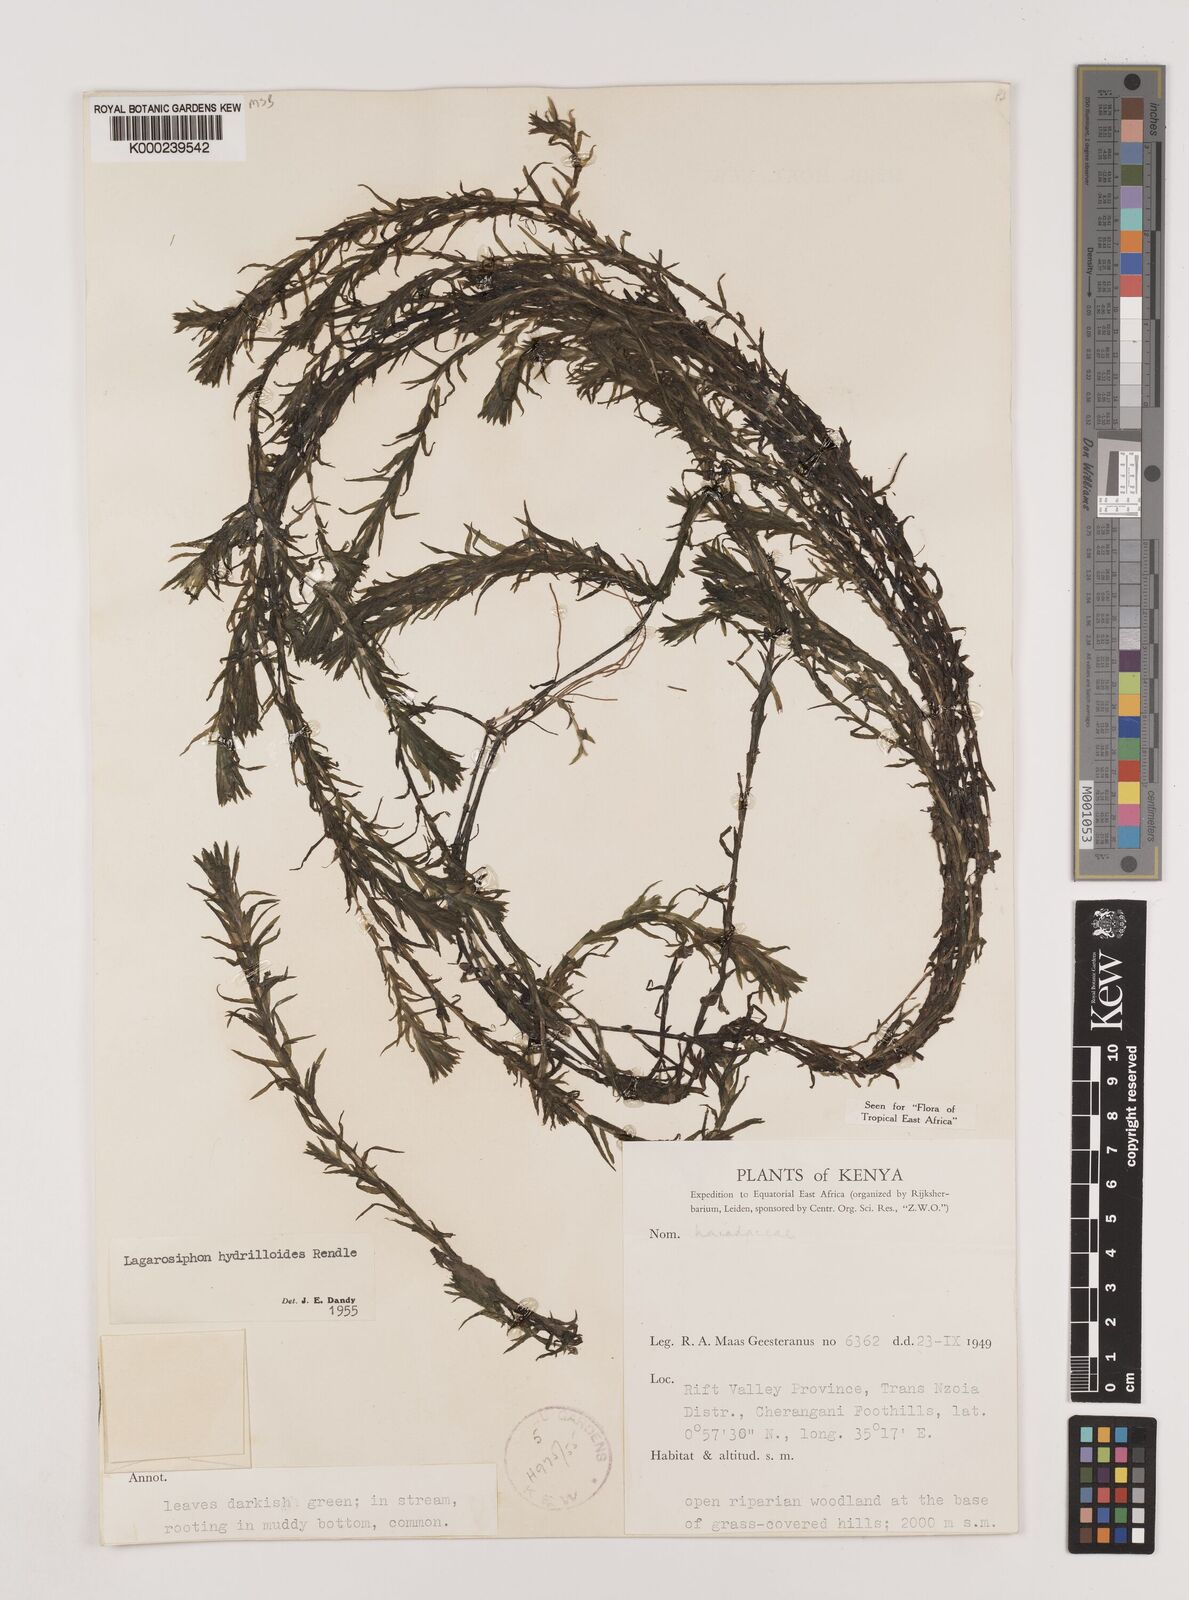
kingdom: Plantae
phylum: Tracheophyta
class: Liliopsida
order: Alismatales
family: Hydrocharitaceae
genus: Lagarosiphon
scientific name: Lagarosiphon hydrilloides
